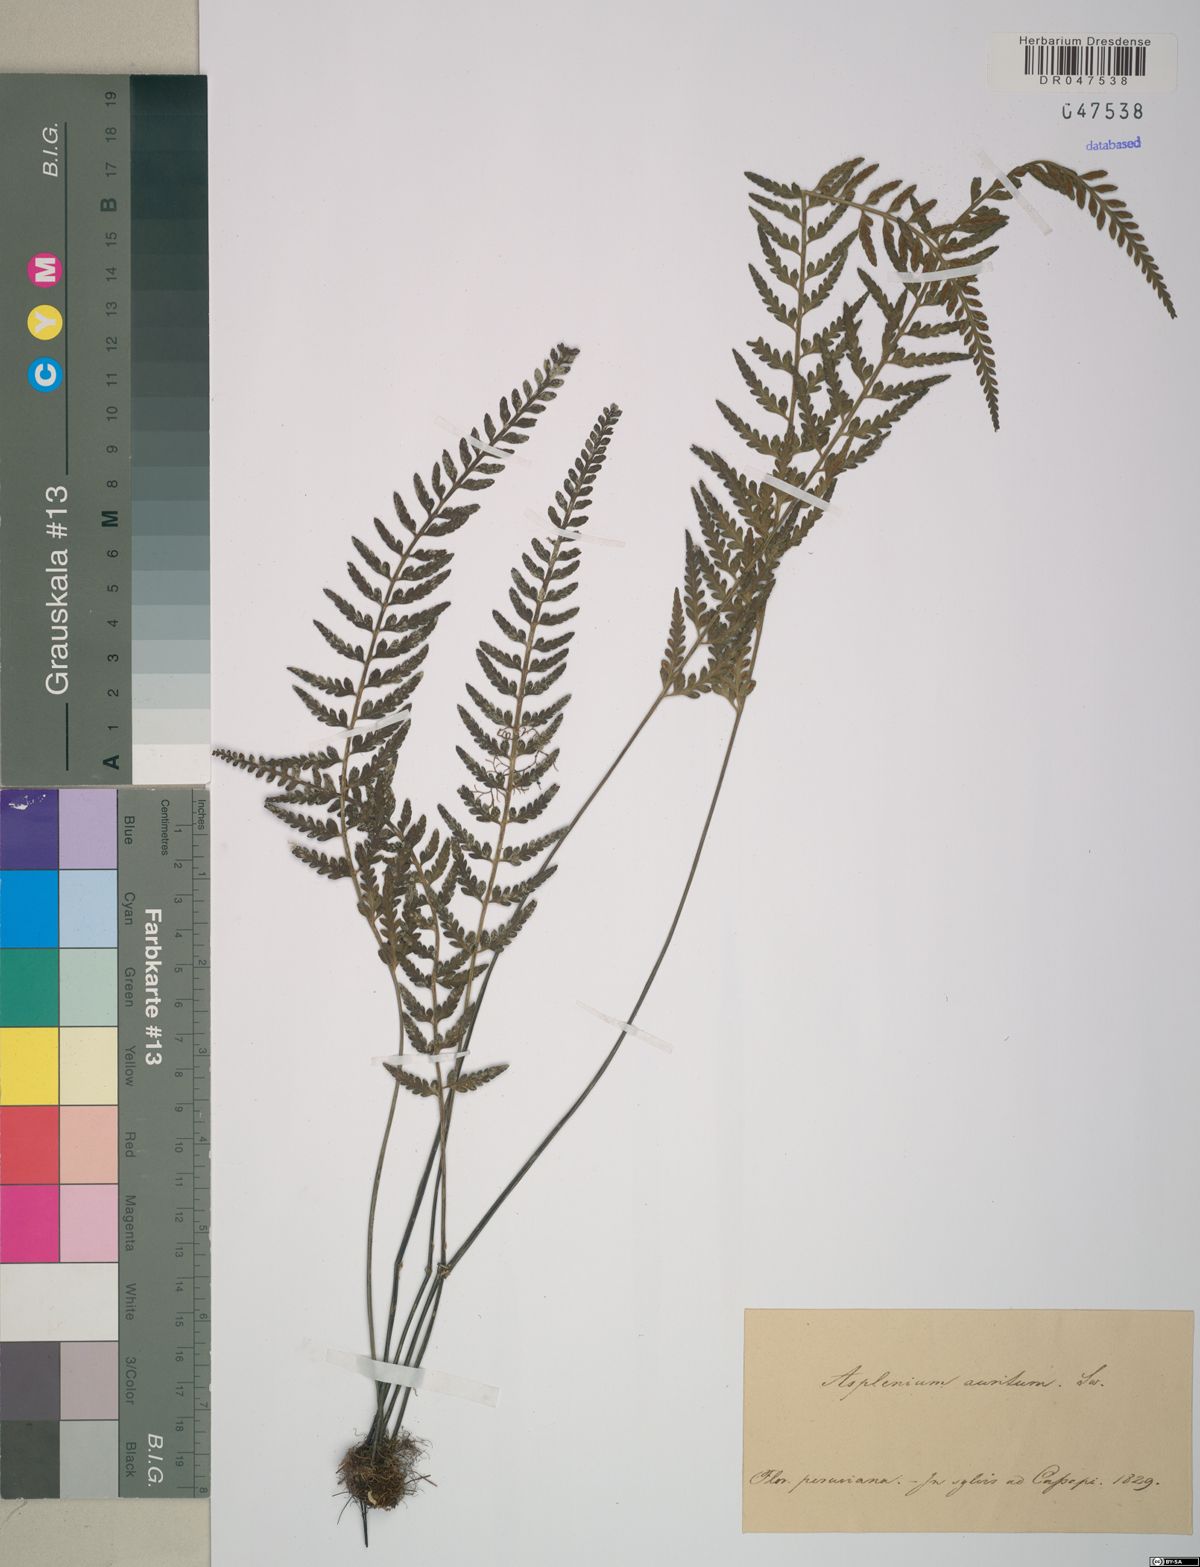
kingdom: Plantae
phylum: Tracheophyta
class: Polypodiopsida
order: Polypodiales
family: Aspleniaceae
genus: Asplenium
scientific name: Asplenium auritum
